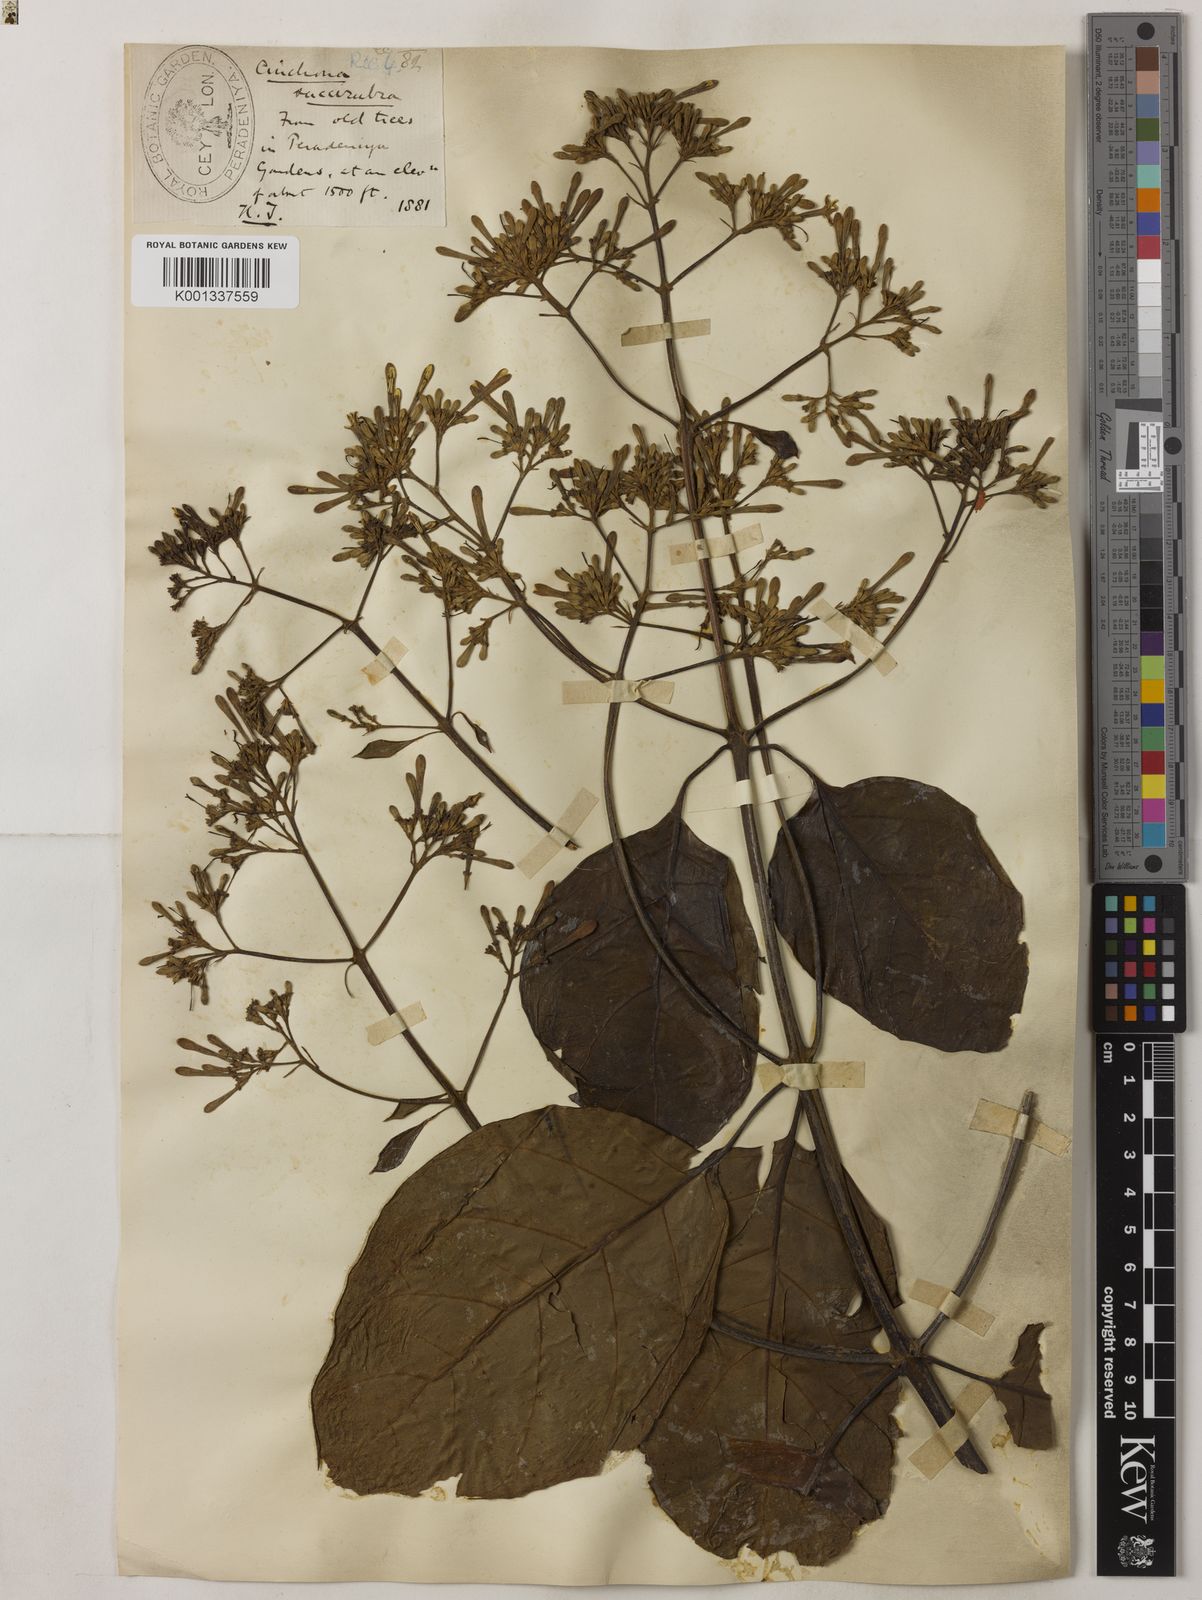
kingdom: Plantae
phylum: Tracheophyta
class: Magnoliopsida
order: Gentianales
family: Rubiaceae
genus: Cinchona
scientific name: Cinchona pubescens
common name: Quinine
